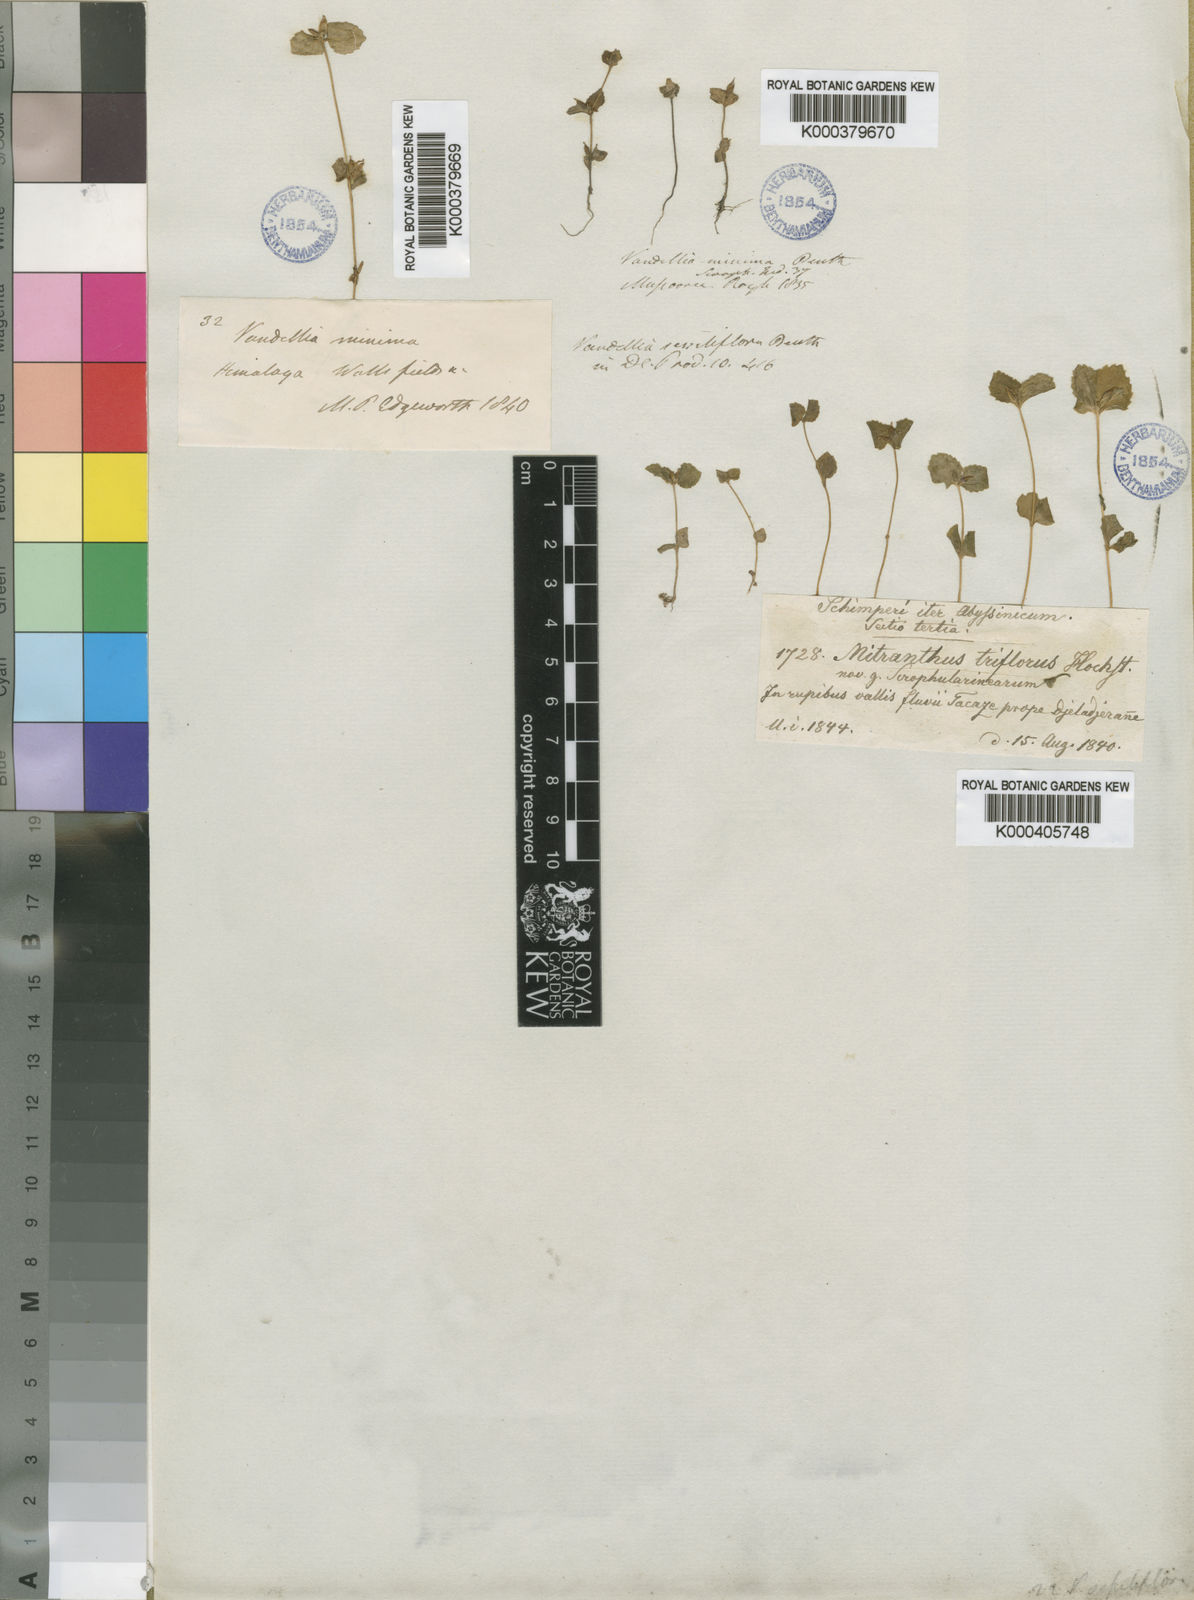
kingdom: Plantae
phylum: Tracheophyta
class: Magnoliopsida
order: Lamiales
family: Linderniaceae
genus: Lindernia
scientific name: Lindernia
